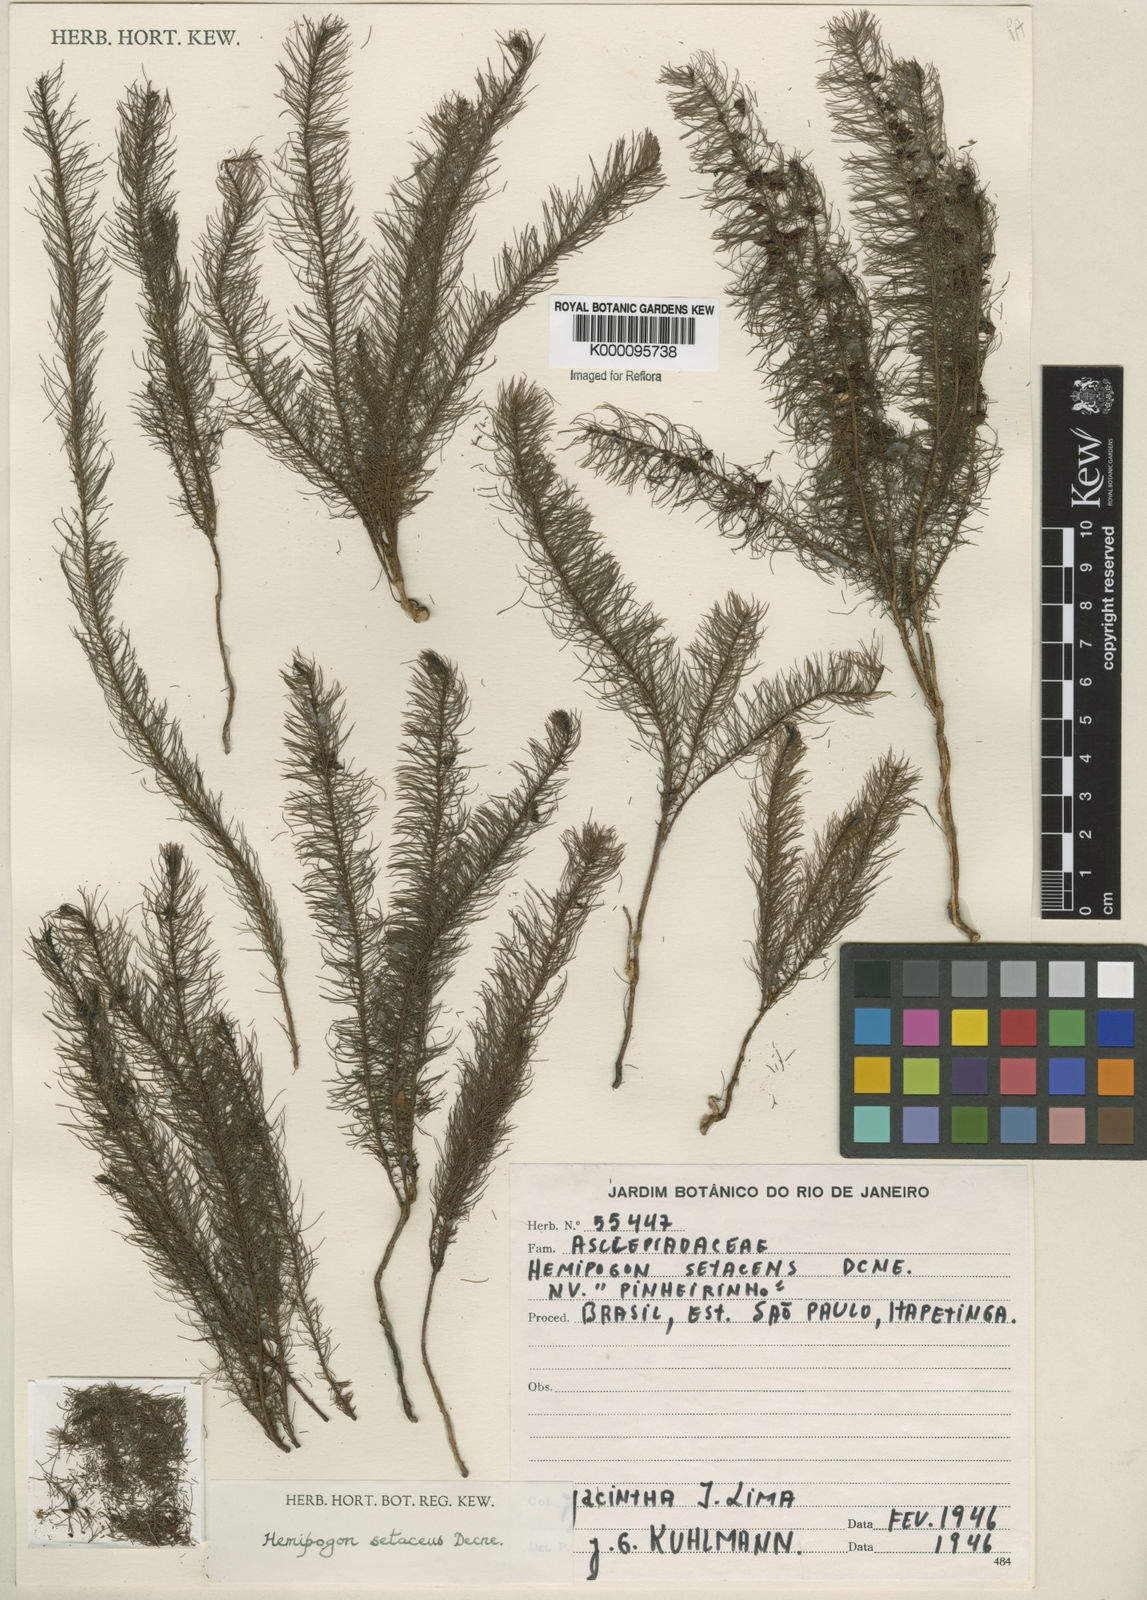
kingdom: Plantae
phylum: Tracheophyta
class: Magnoliopsida
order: Gentianales
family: Apocynaceae
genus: Hemipogon
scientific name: Hemipogon
